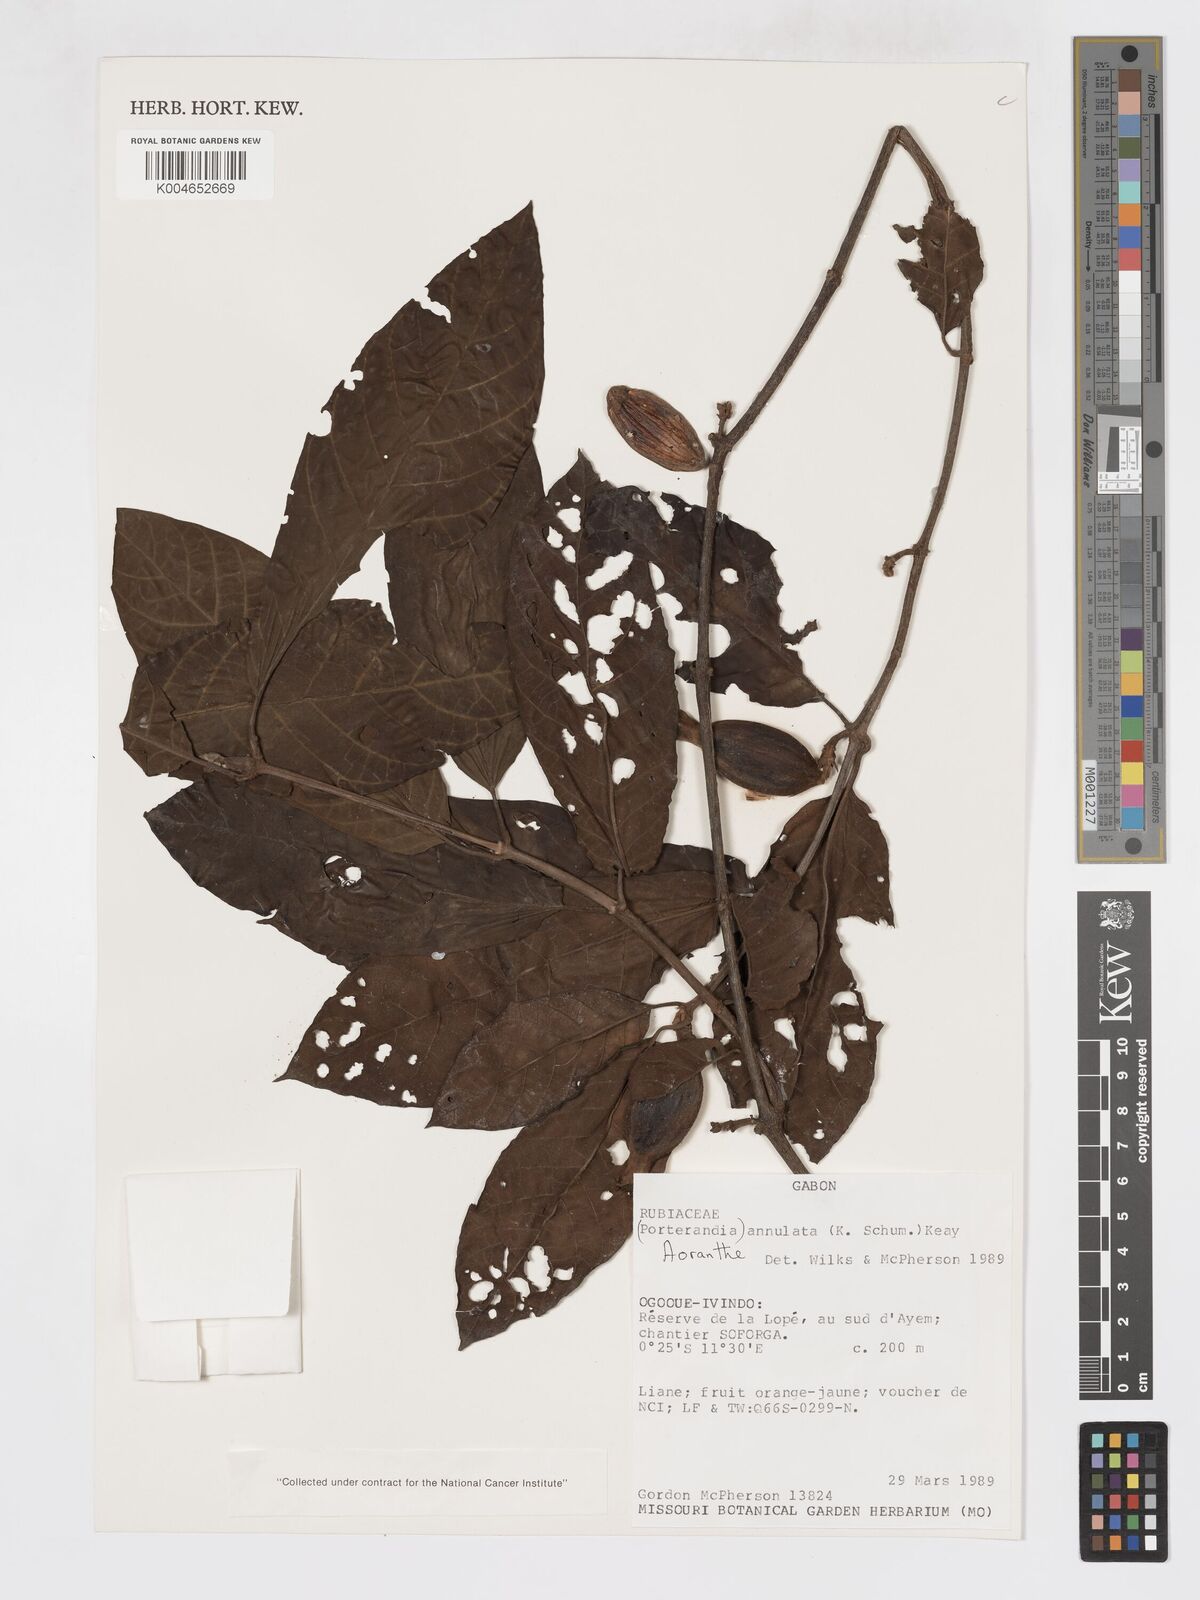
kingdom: Plantae
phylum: Tracheophyta
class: Magnoliopsida
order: Gentianales
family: Rubiaceae
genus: Aoranthe
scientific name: Aoranthe annulata
